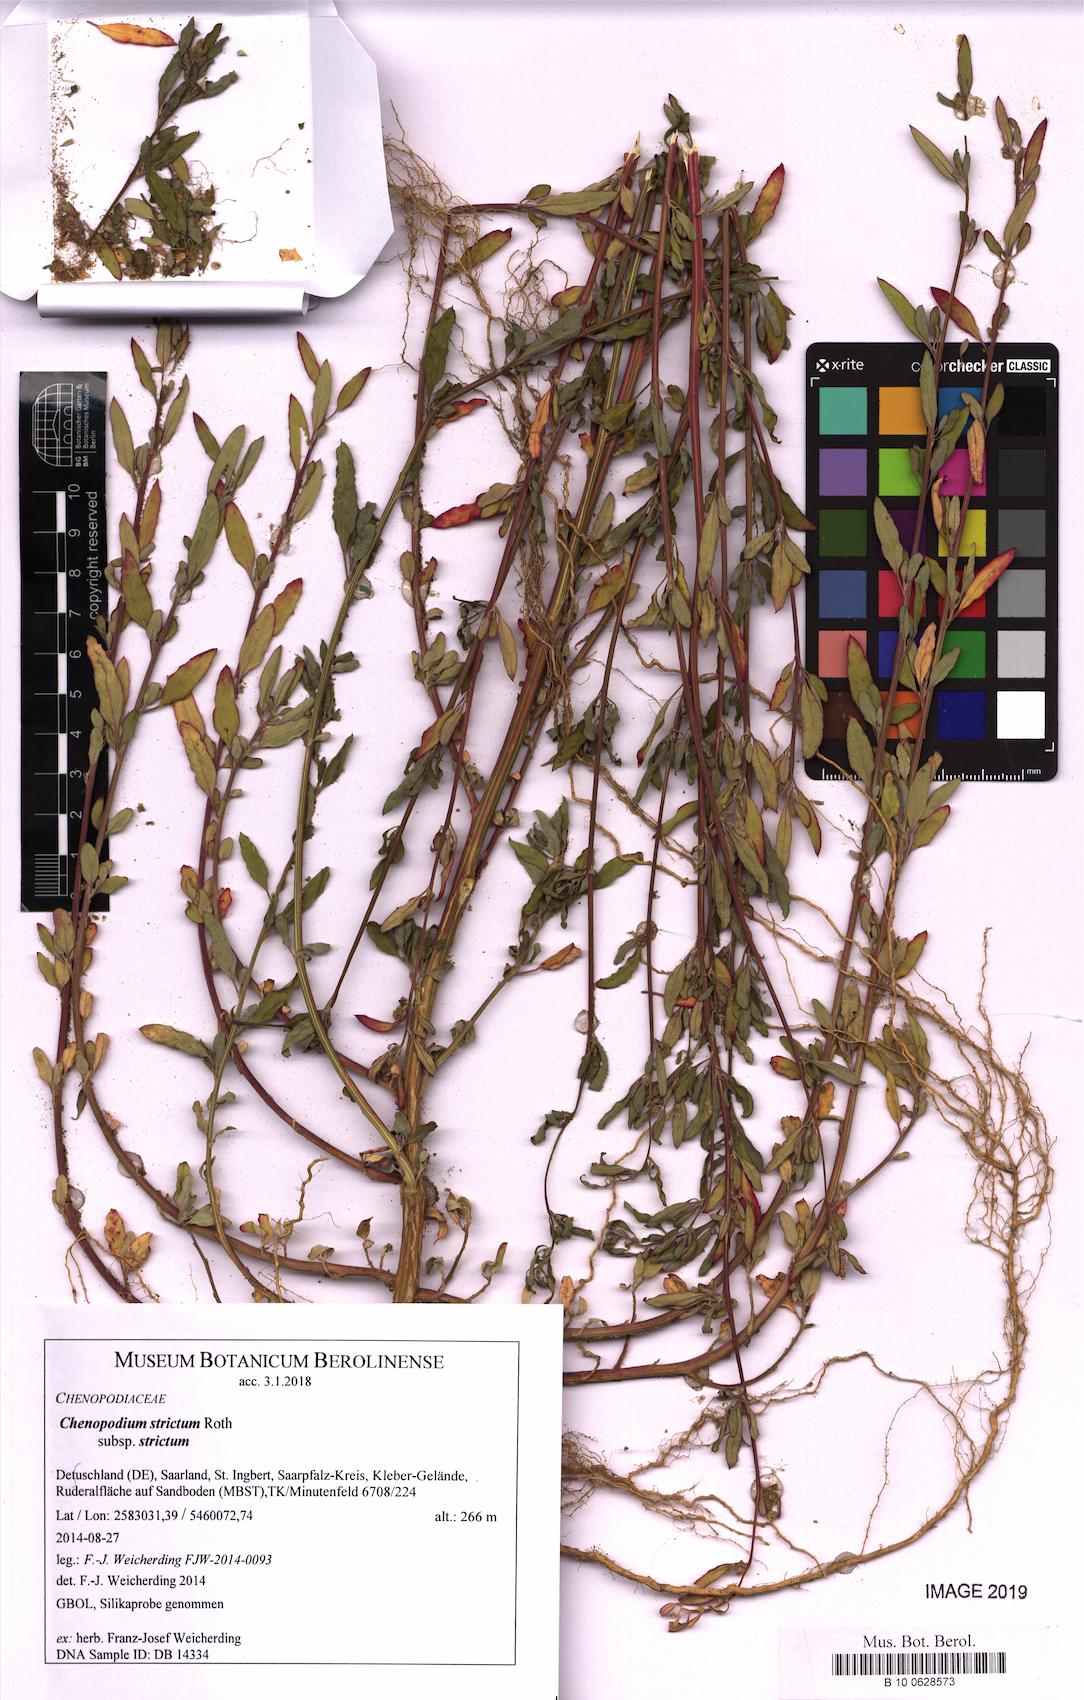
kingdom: Plantae
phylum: Tracheophyta
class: Magnoliopsida
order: Caryophyllales
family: Amaranthaceae
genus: Chenopodium
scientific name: Chenopodium album
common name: Fat-hen
